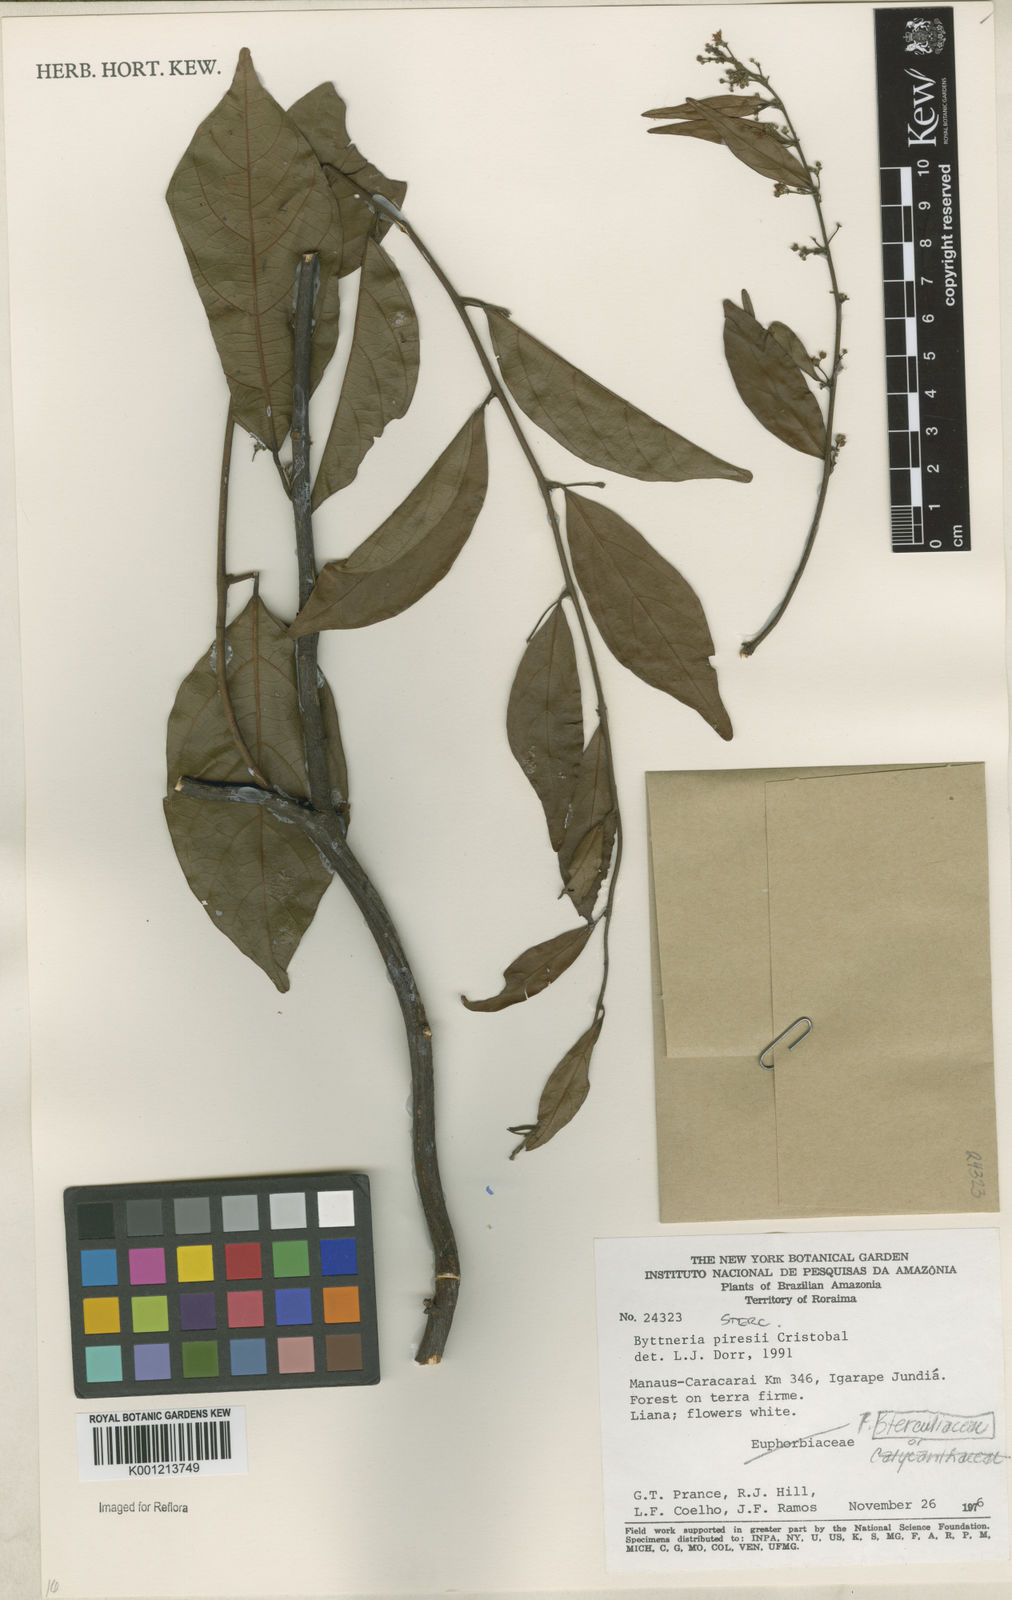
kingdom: Plantae
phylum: Tracheophyta
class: Magnoliopsida
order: Malvales
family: Malvaceae
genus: Byttneria
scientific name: Byttneria
